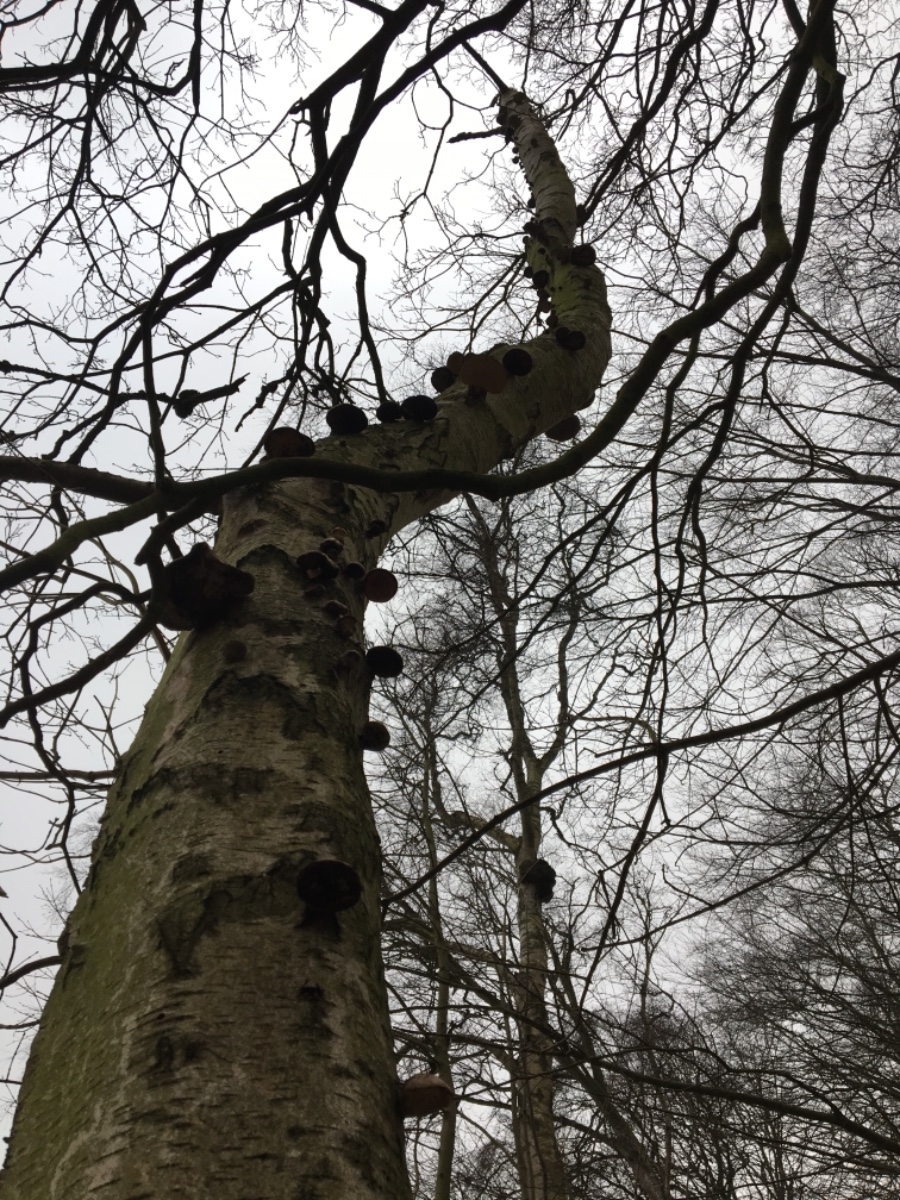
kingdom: Fungi
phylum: Basidiomycota
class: Agaricomycetes
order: Polyporales
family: Fomitopsidaceae
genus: Fomitopsis
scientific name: Fomitopsis betulina
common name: birkeporesvamp
